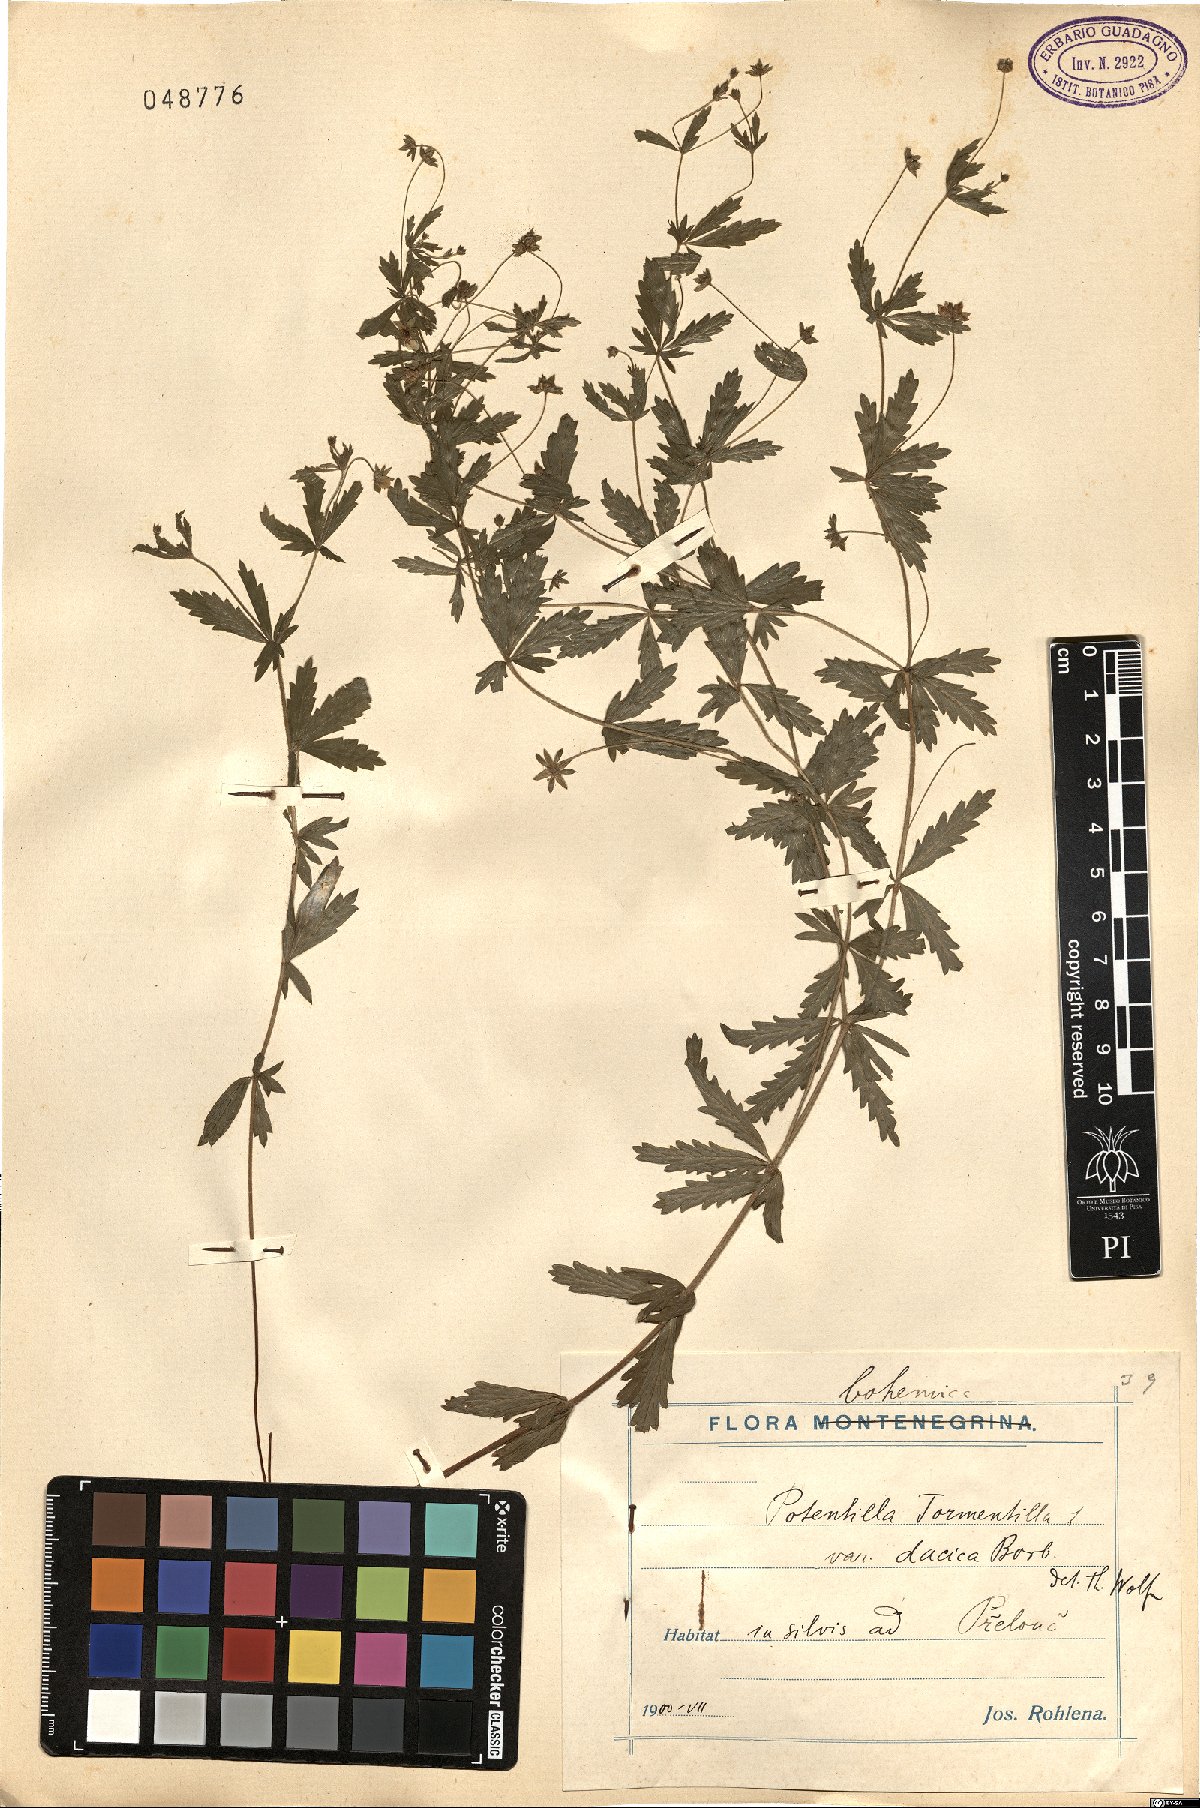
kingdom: Plantae
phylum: Tracheophyta
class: Magnoliopsida
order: Rosales
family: Rosaceae
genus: Potentilla
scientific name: Potentilla erecta
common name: Tormentil
